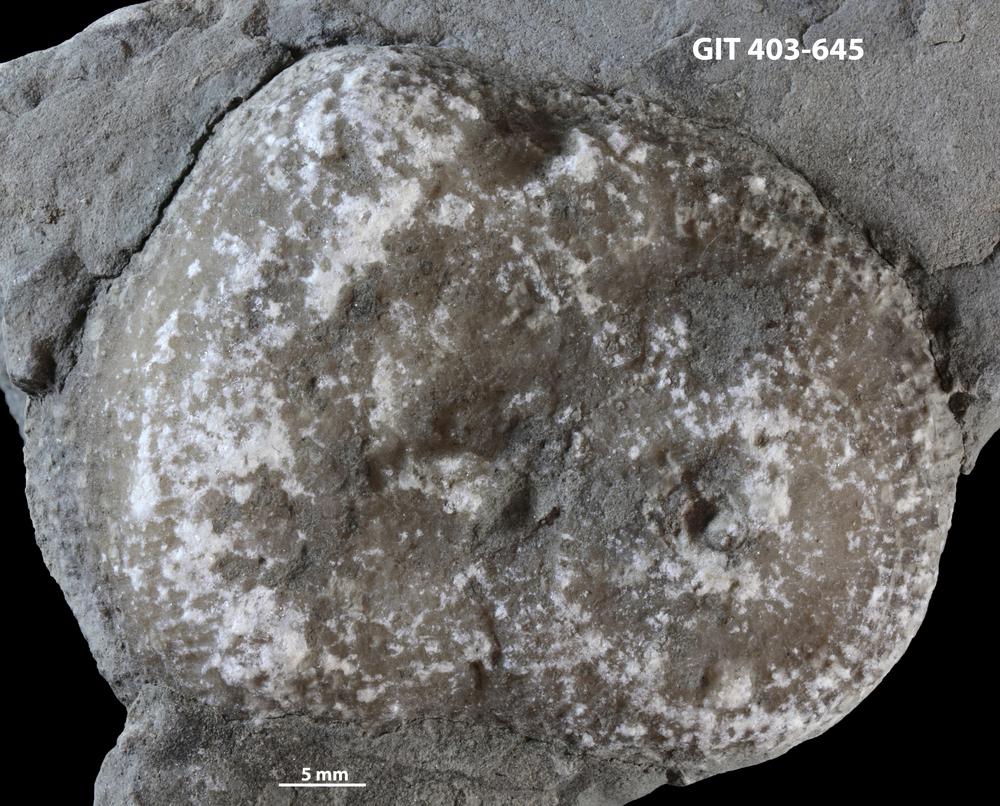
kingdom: Animalia
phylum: Cnidaria
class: Anthozoa
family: Favositidae
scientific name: Favositidae
